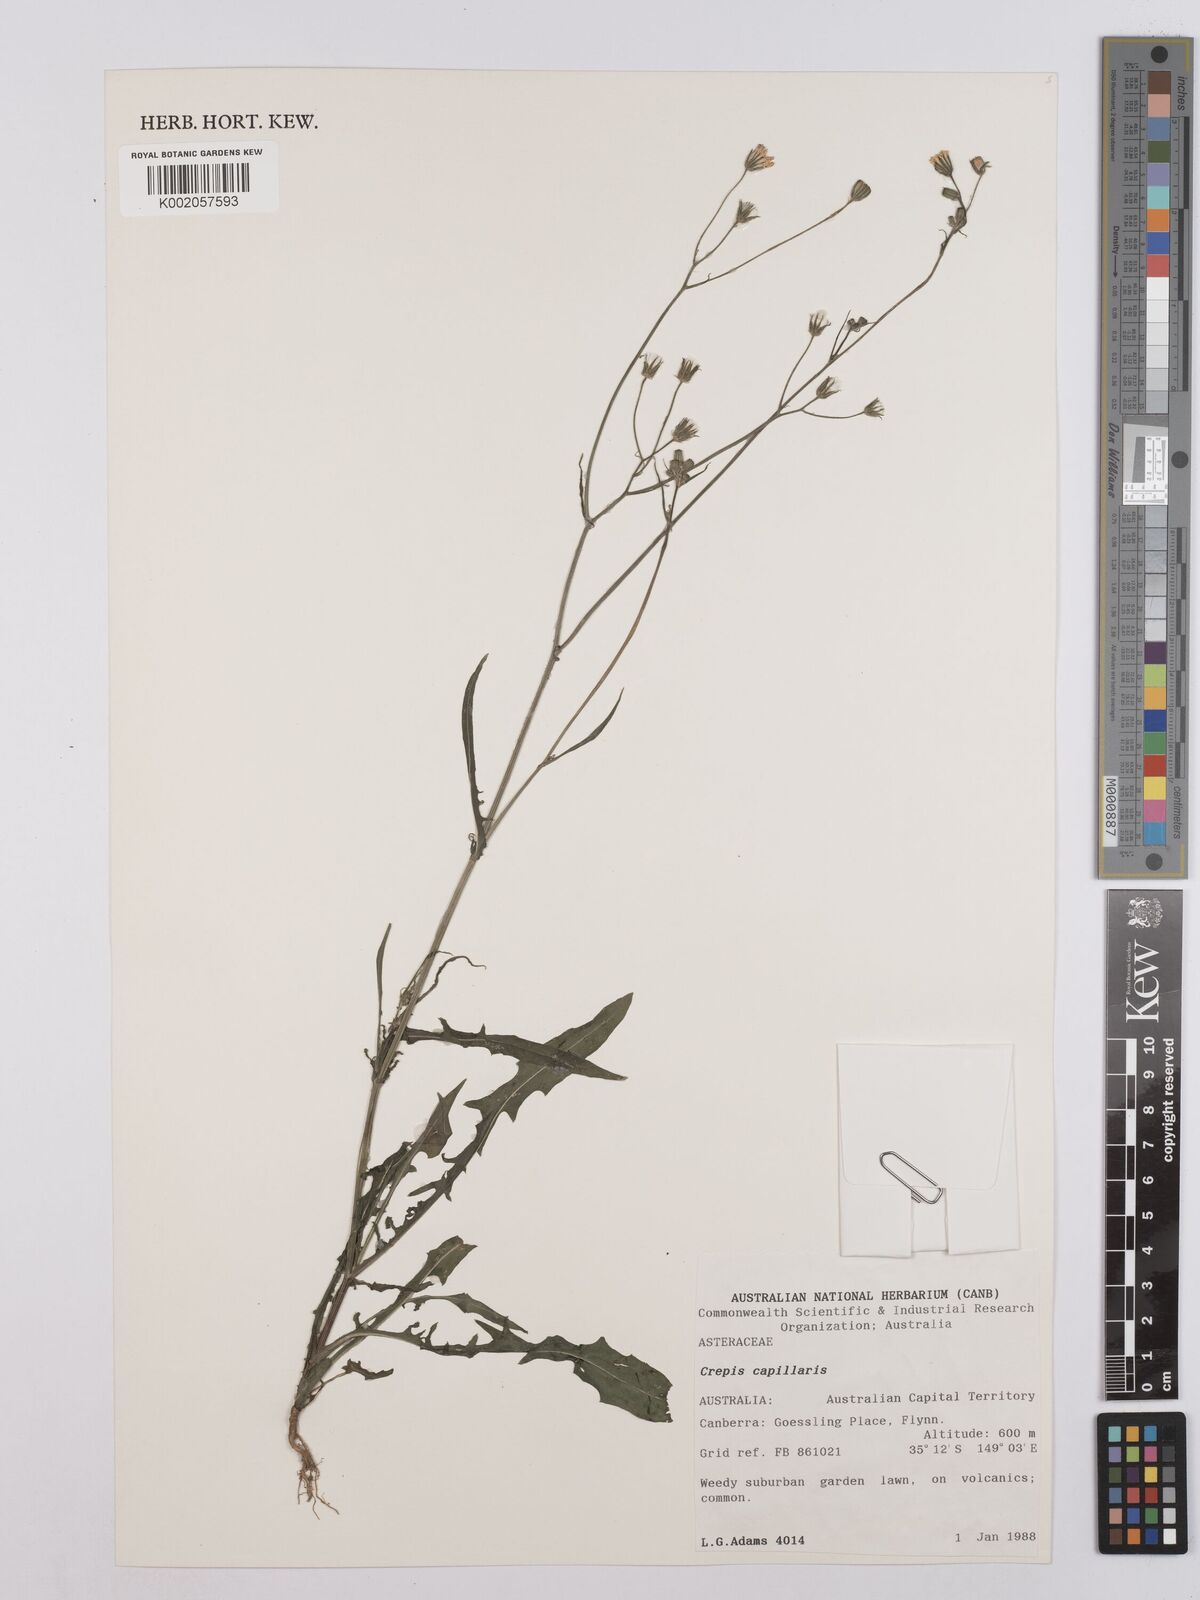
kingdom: Plantae
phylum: Tracheophyta
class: Magnoliopsida
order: Asterales
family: Asteraceae
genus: Crepis
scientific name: Crepis capillaris
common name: Smooth hawksbeard
